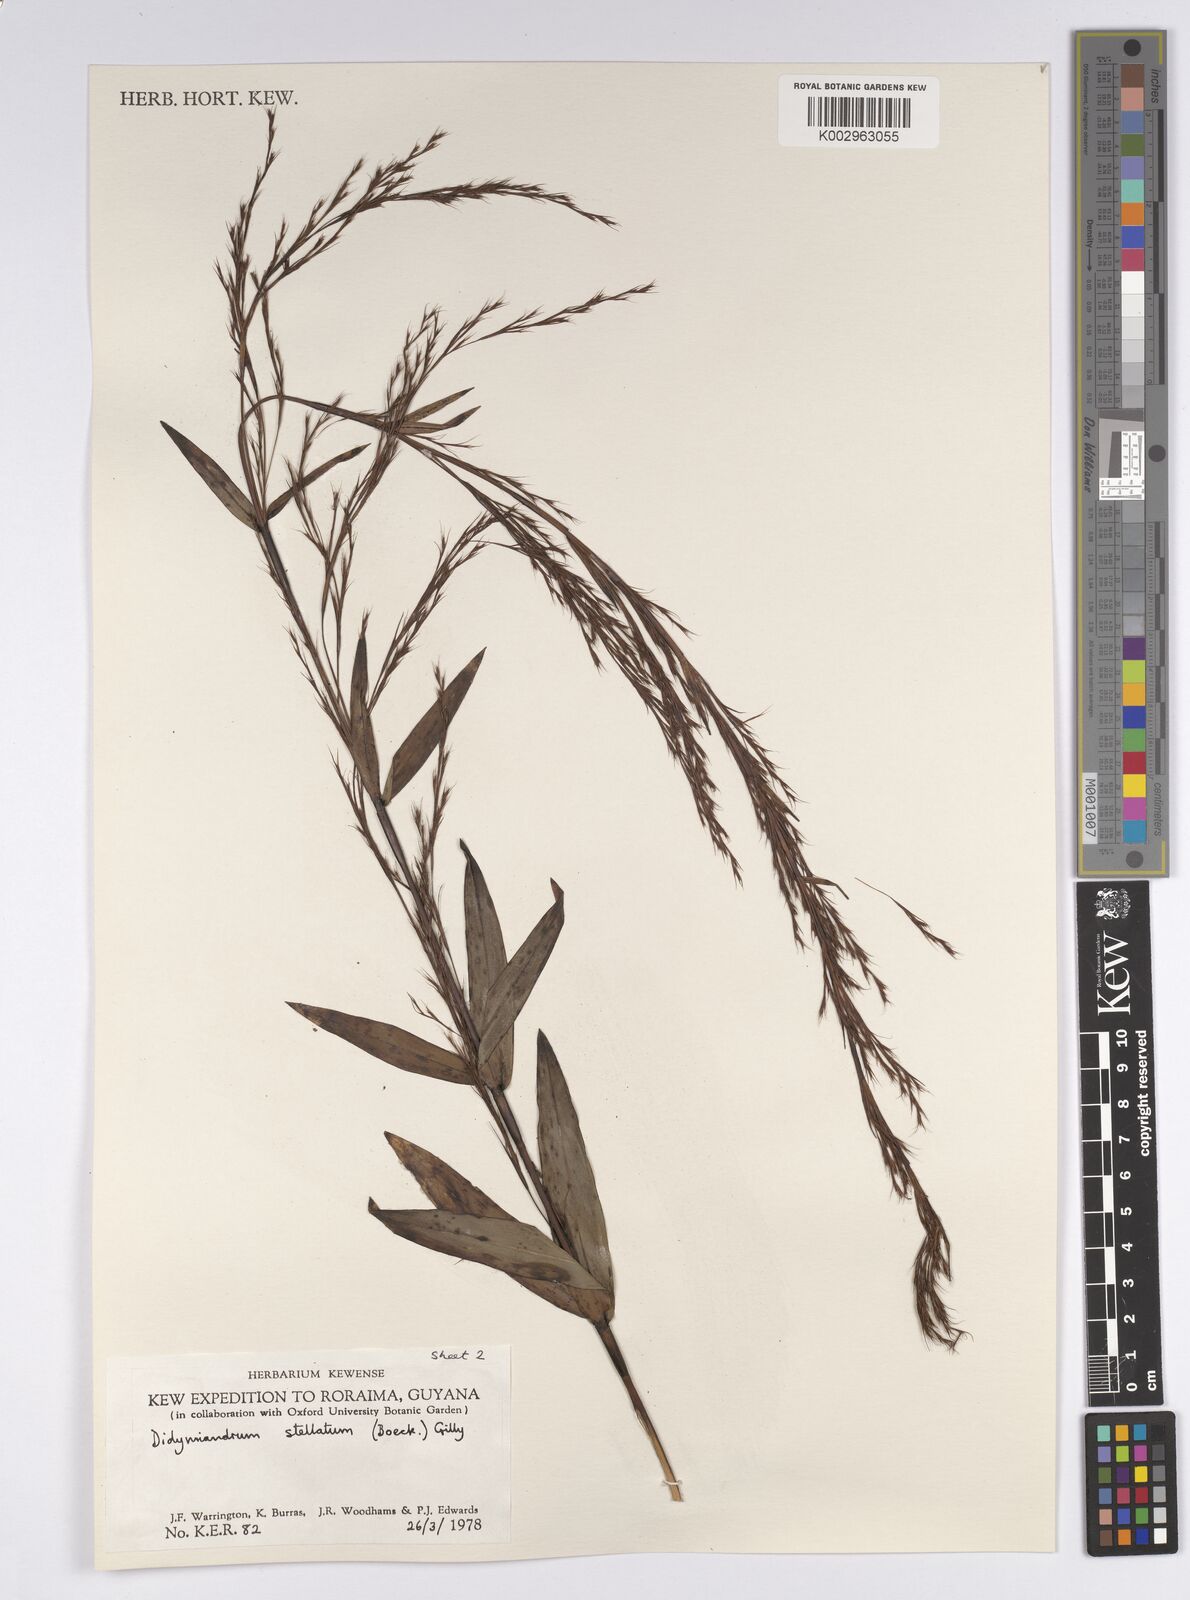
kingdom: Plantae
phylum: Tracheophyta
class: Liliopsida
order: Poales
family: Cyperaceae
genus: Didymiandrum
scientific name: Didymiandrum stellatum
